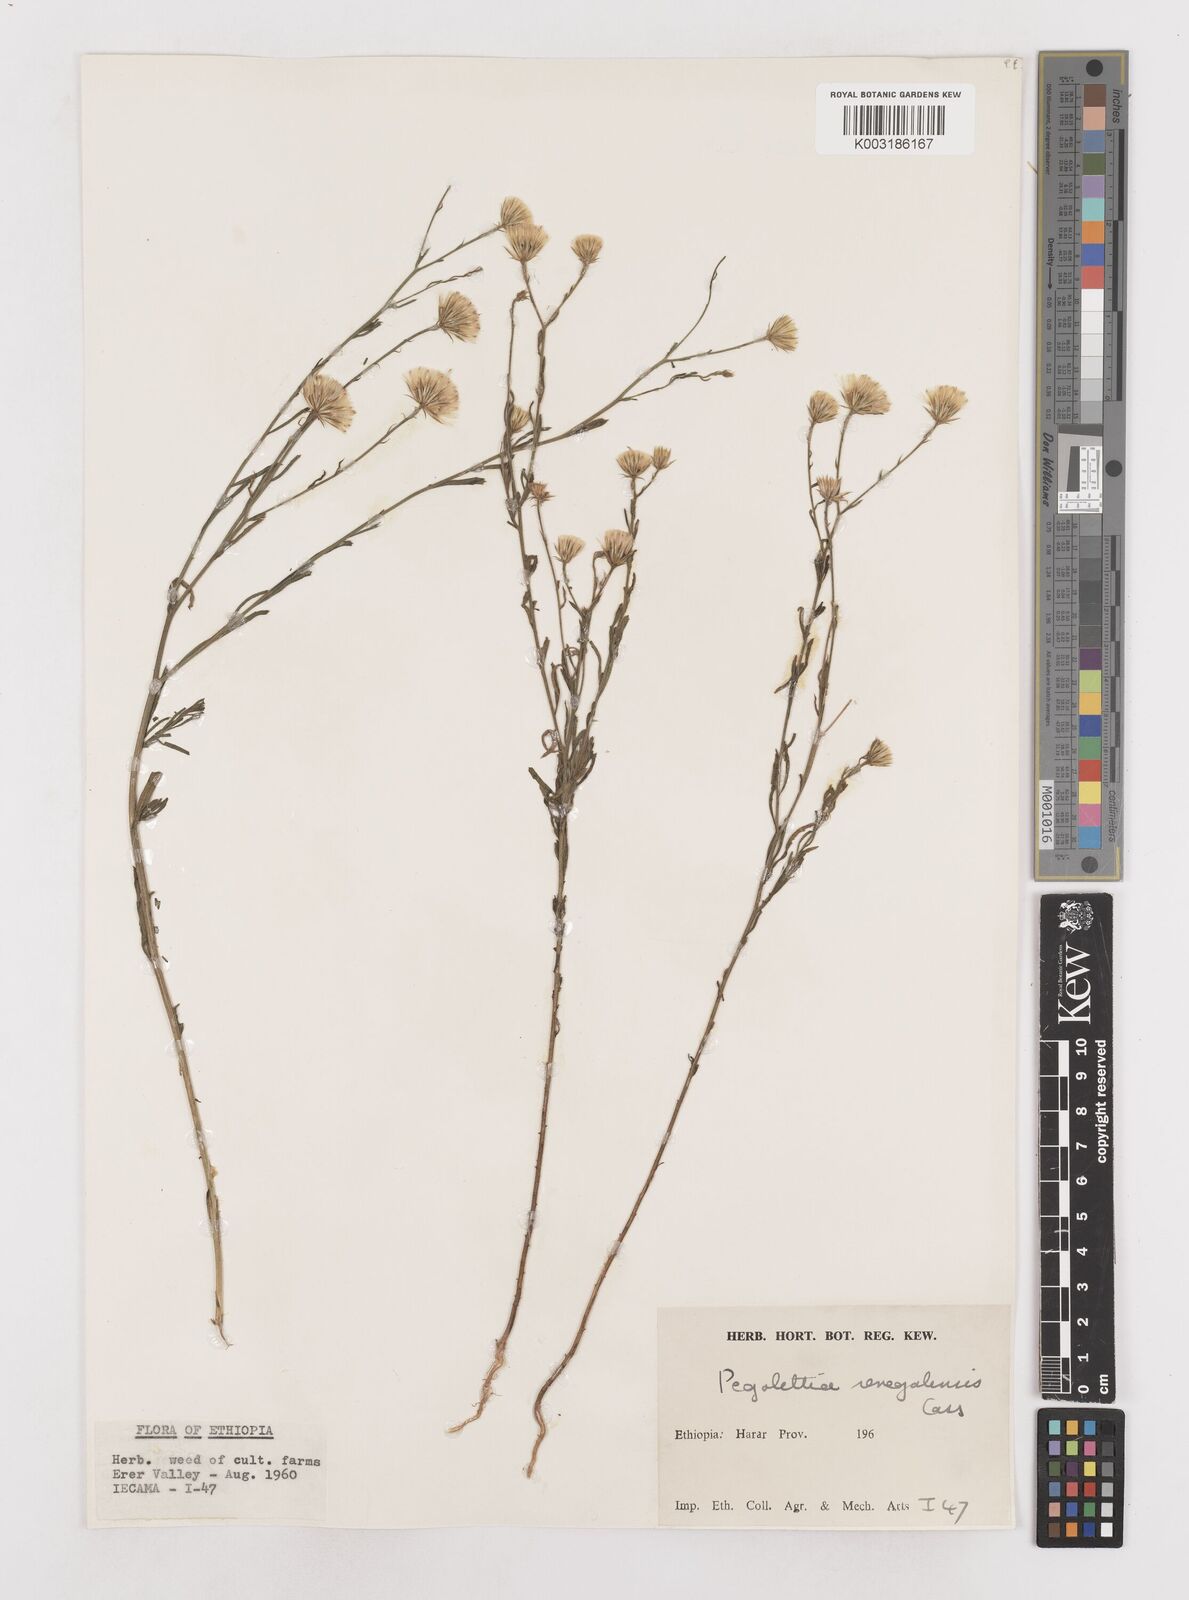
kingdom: Plantae
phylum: Tracheophyta
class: Magnoliopsida
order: Asterales
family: Asteraceae
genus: Pegolettia
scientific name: Pegolettia senegalensis
